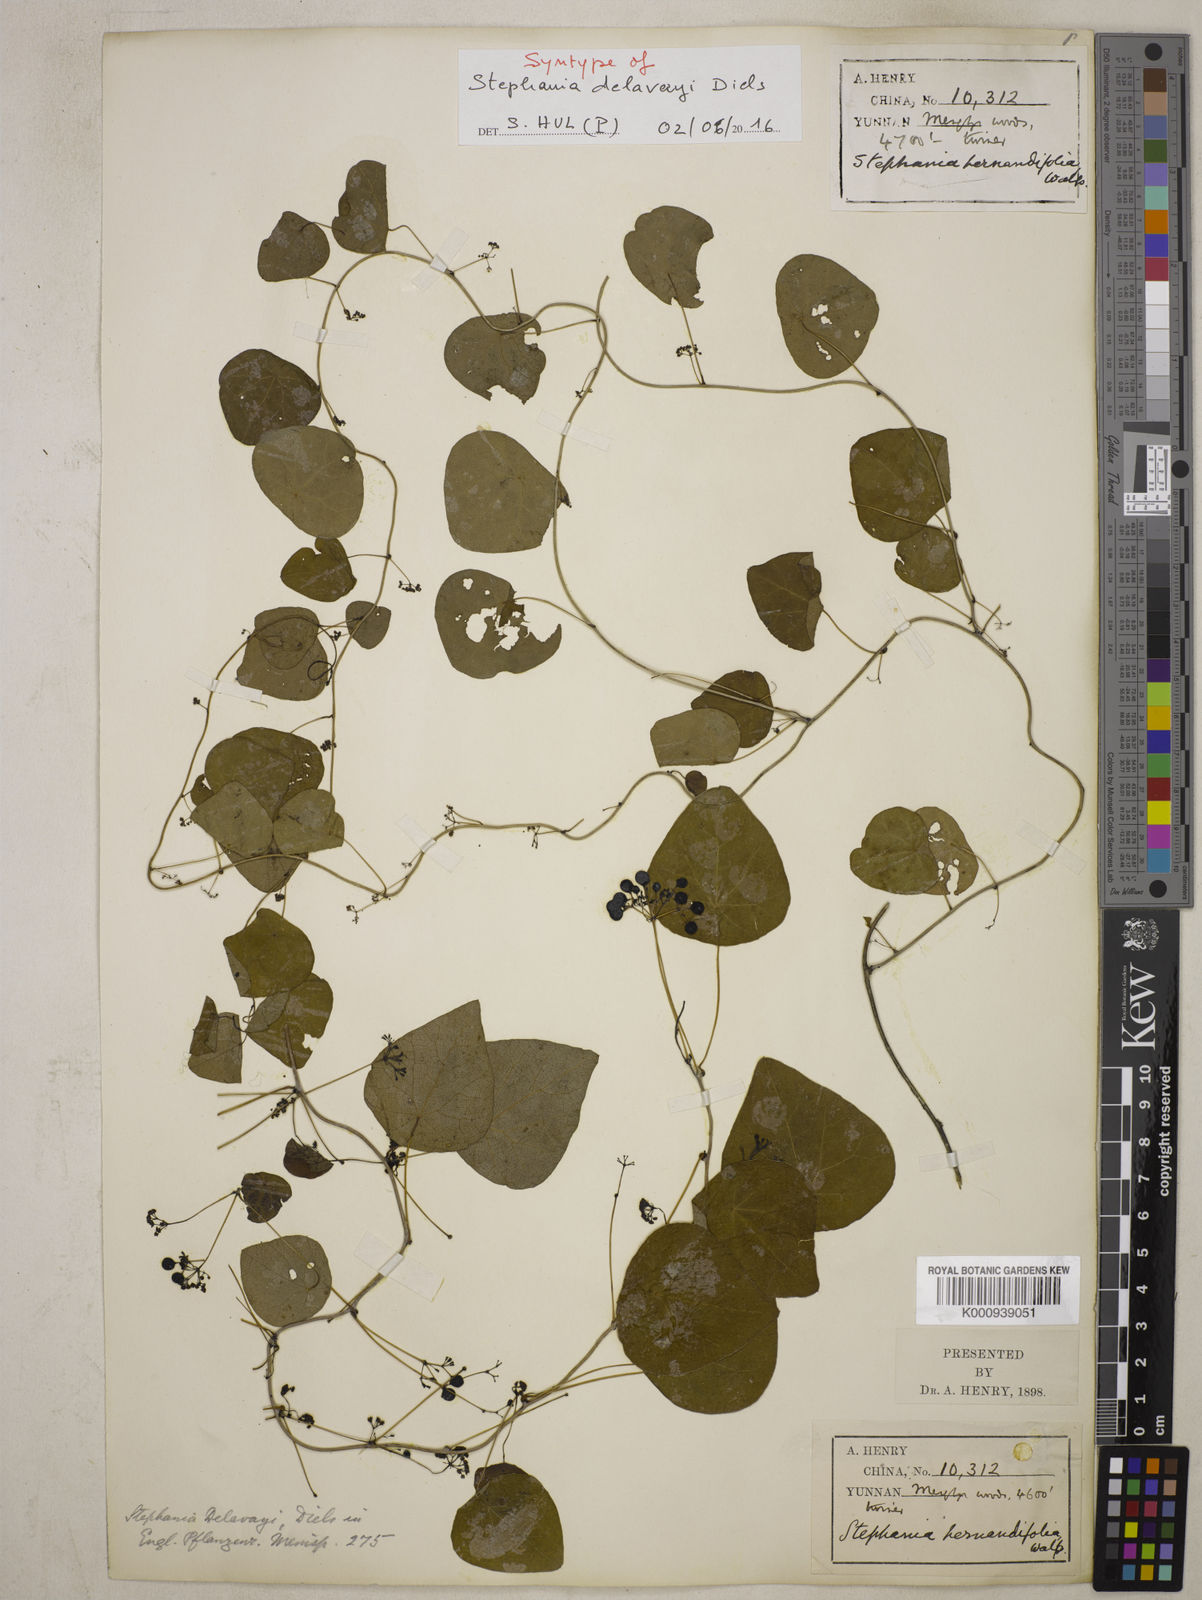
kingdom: Plantae
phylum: Tracheophyta
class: Magnoliopsida
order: Ranunculales
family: Menispermaceae
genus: Stephania
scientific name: Stephania delavayi
